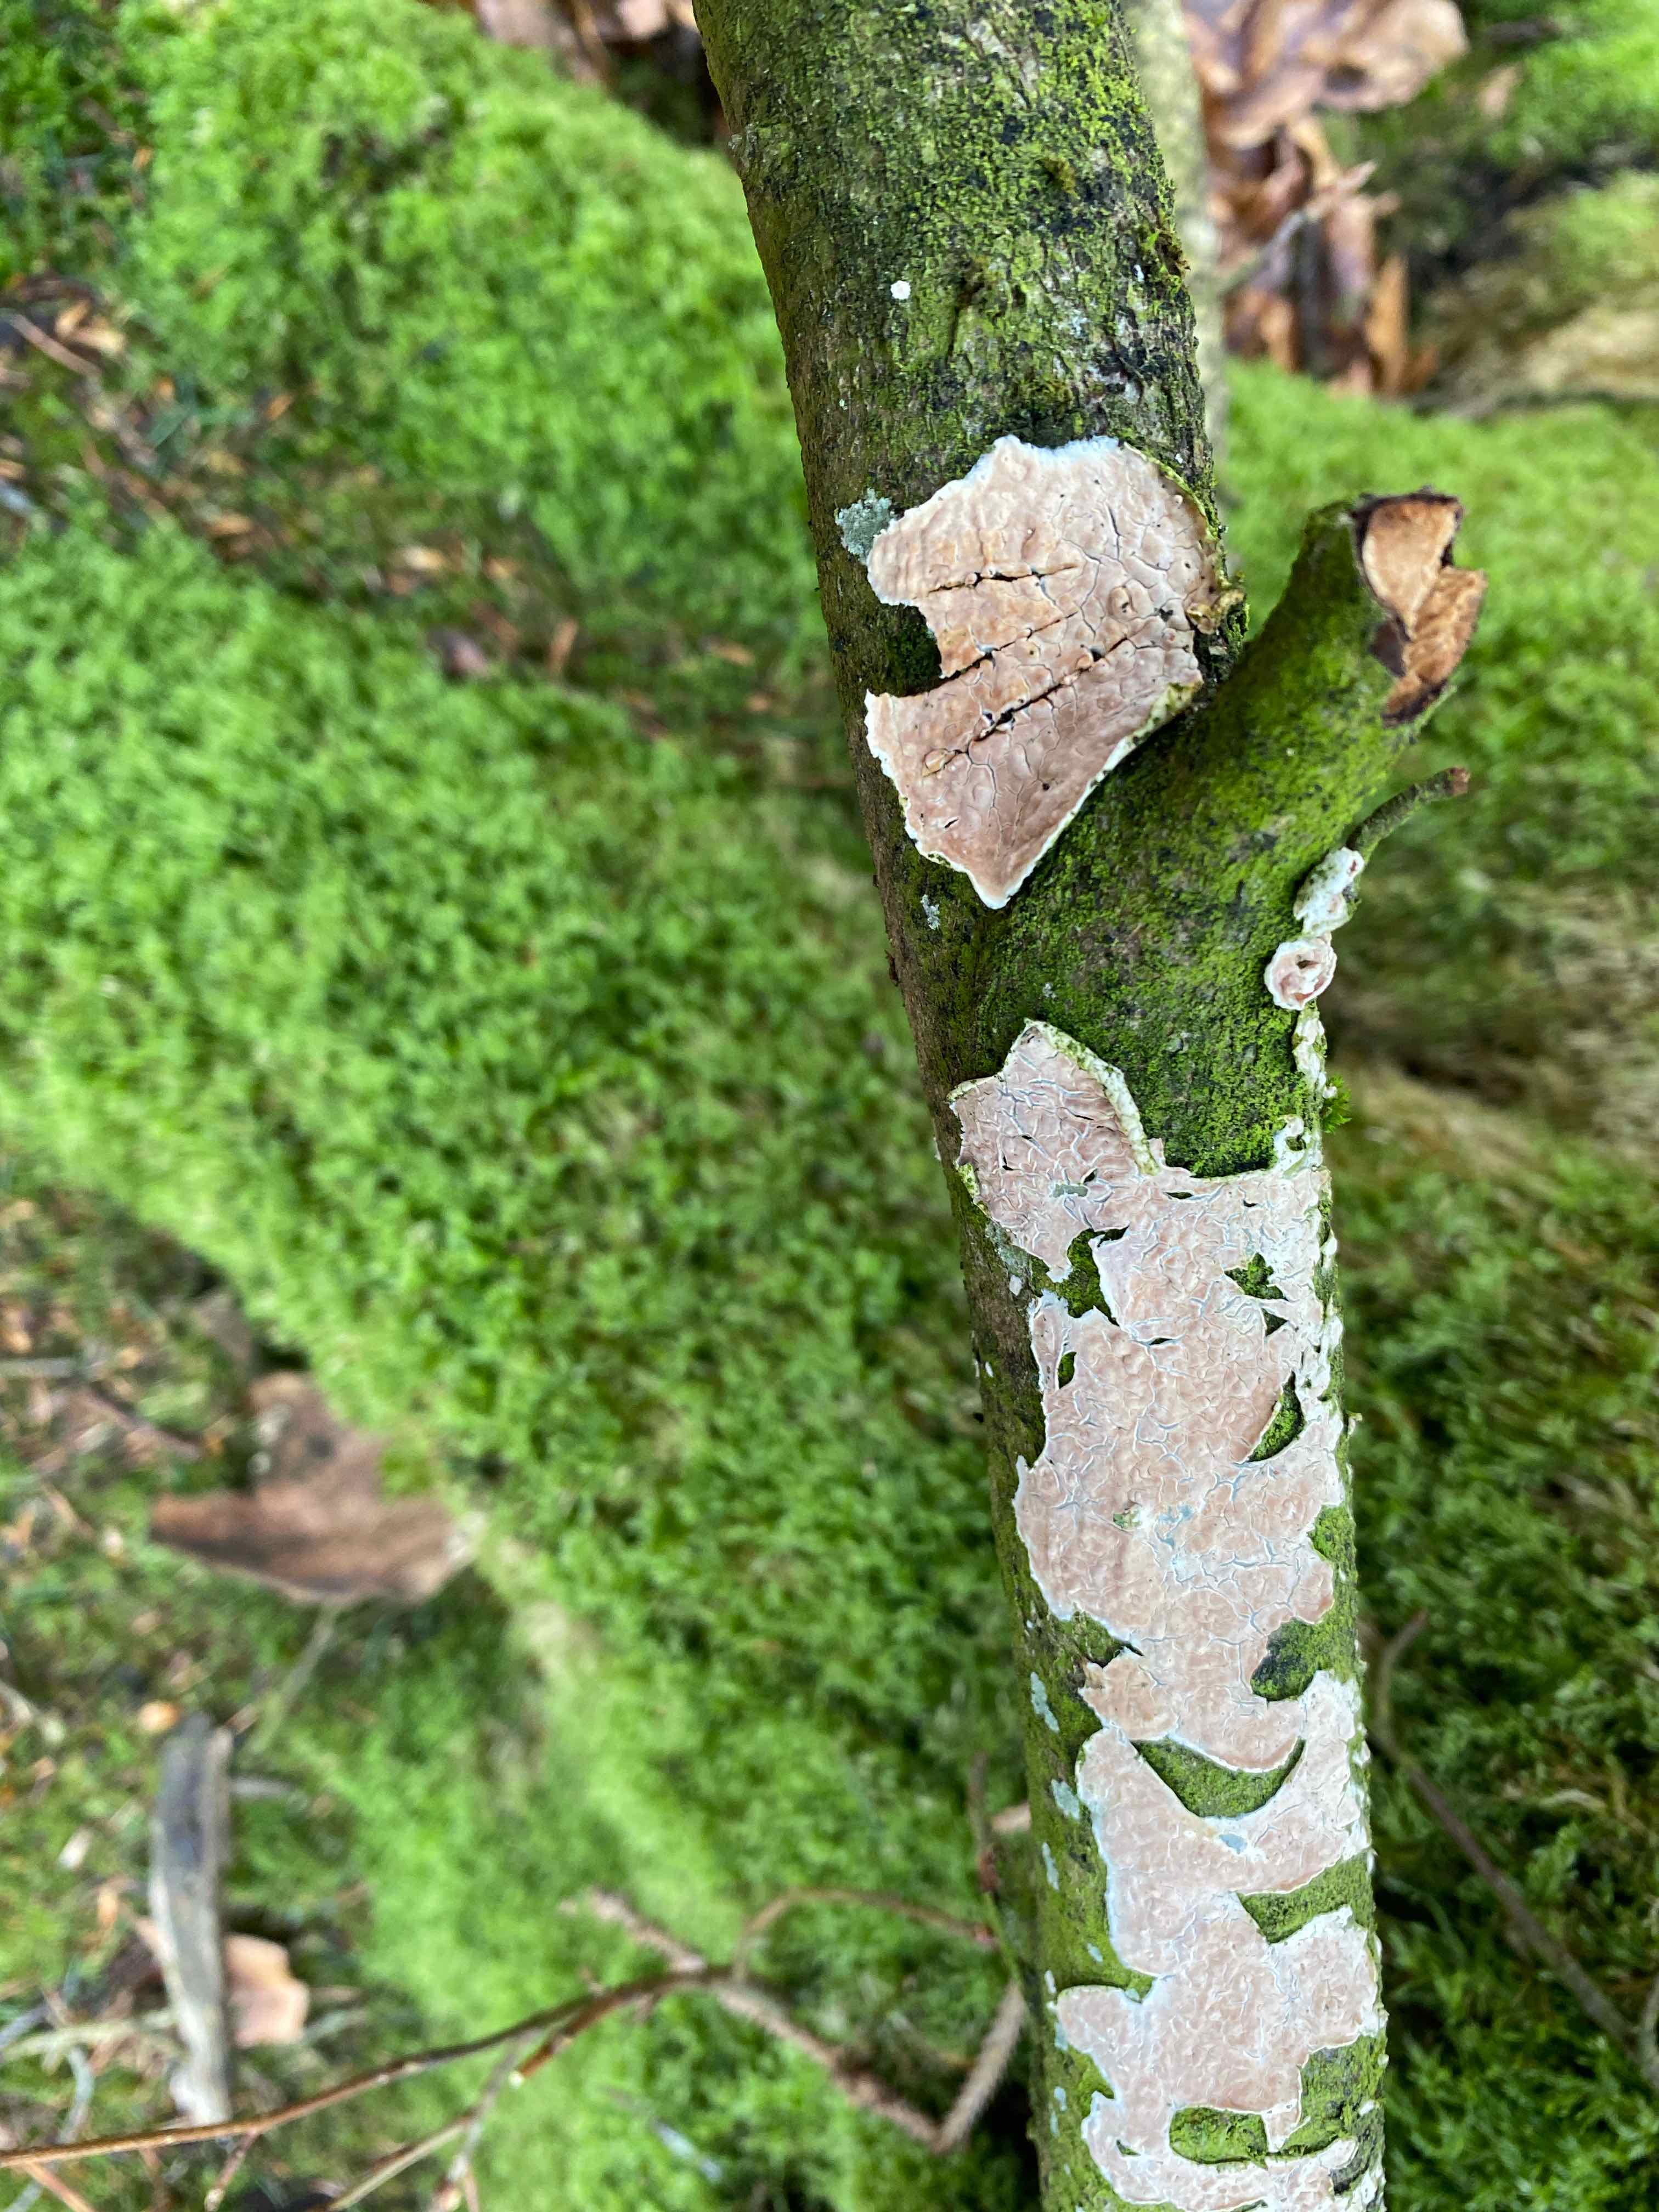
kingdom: Fungi
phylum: Basidiomycota
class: Agaricomycetes
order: Agaricales
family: Physalacriaceae
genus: Cylindrobasidium
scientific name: Cylindrobasidium evolvens
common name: sprækkehinde
